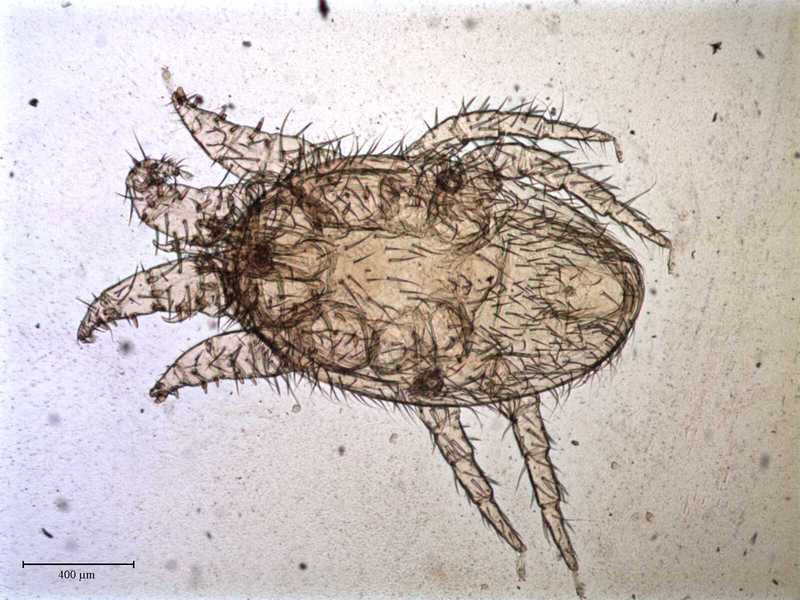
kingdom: Animalia
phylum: Arthropoda
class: Arachnida
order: Mesostigmata
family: Laelapidae
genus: Dinogamasus
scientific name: Dinogamasus
